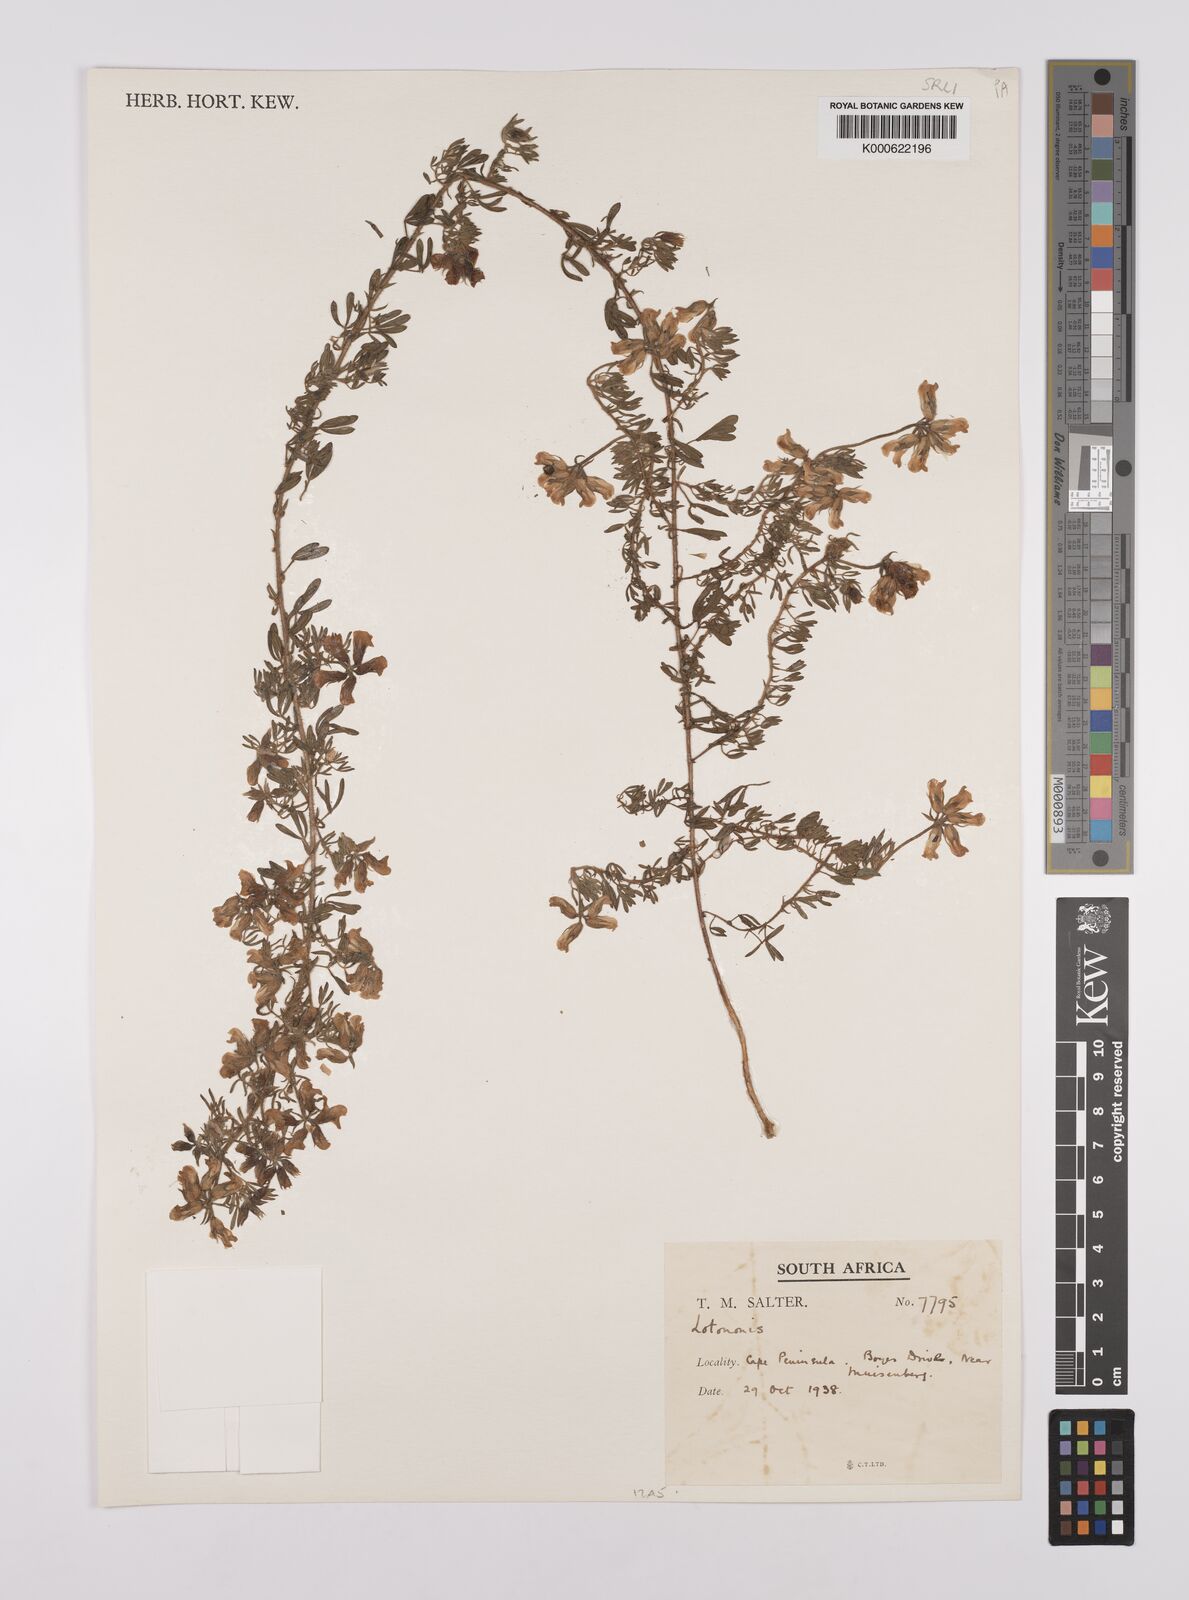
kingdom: Plantae
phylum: Tracheophyta
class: Magnoliopsida
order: Fabales
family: Fabaceae
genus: Lotononis
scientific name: Lotononis involucrata
